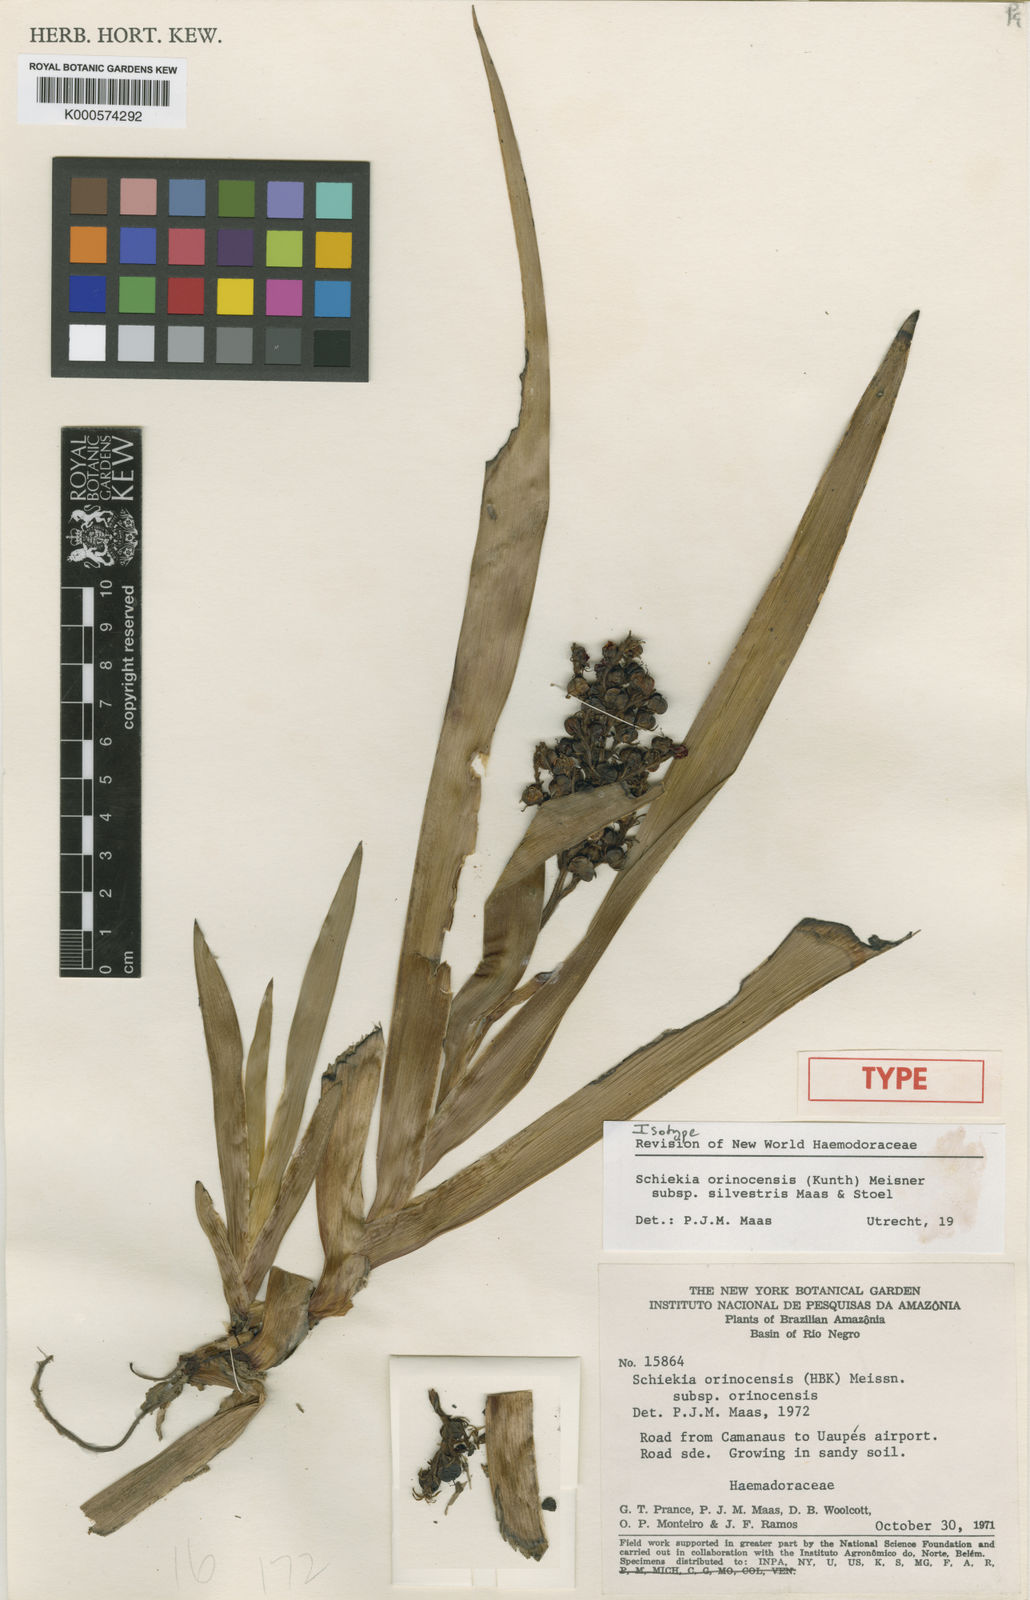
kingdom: Plantae
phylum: Tracheophyta
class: Liliopsida
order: Commelinales
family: Haemodoraceae
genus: Schiekia
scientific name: Schiekia silvestris
